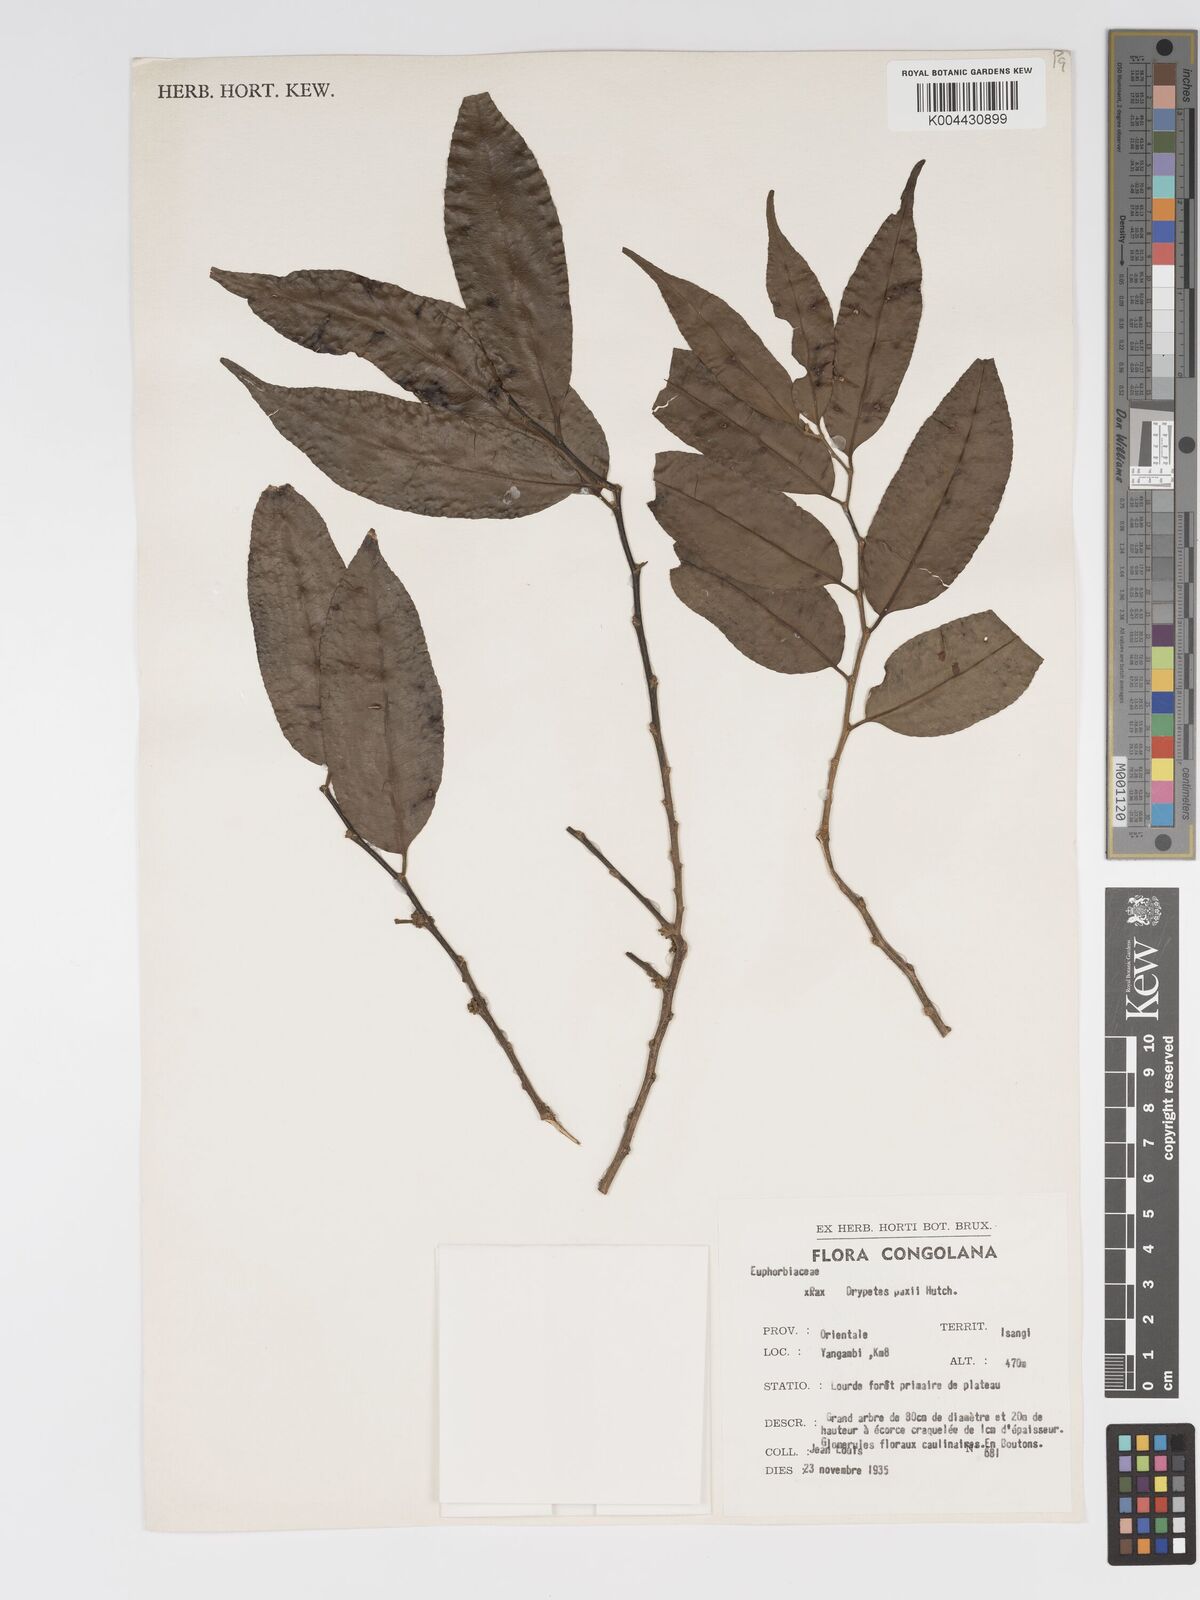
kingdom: Plantae
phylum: Tracheophyta
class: Magnoliopsida
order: Malpighiales
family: Putranjivaceae
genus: Drypetes
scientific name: Drypetes paxii
